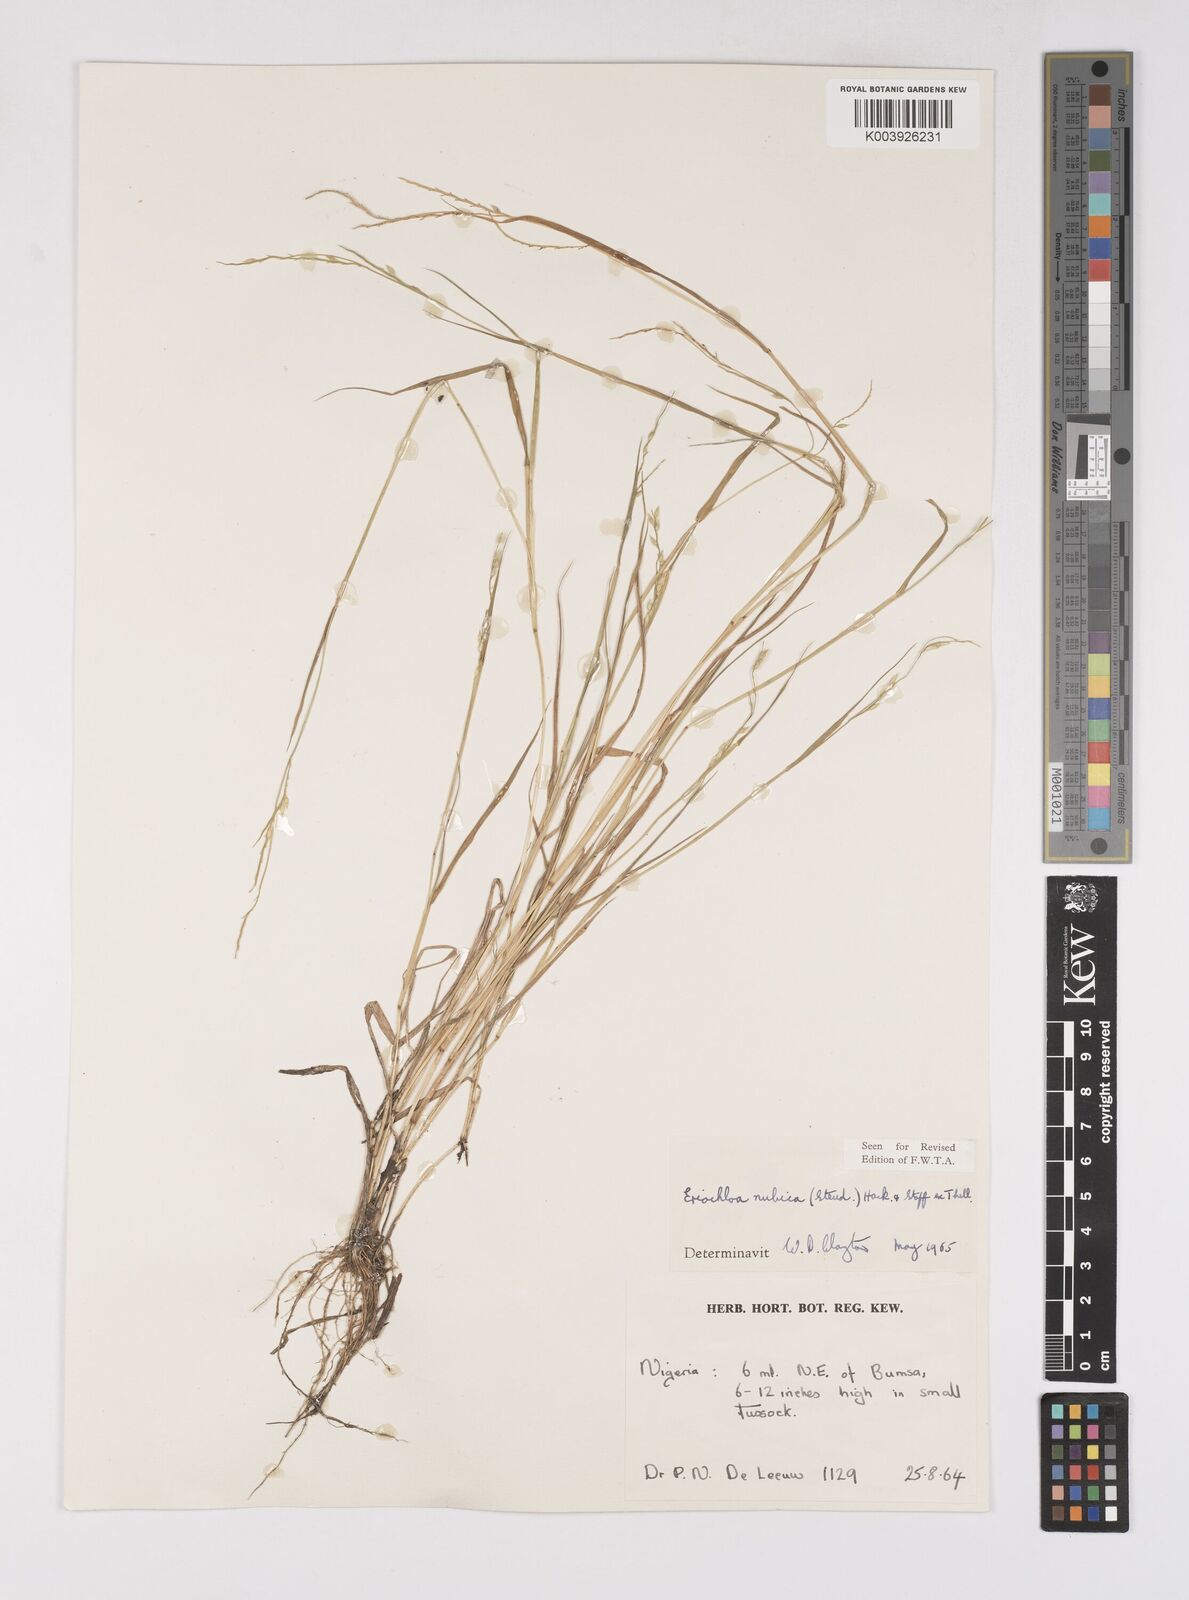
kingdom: Plantae
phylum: Tracheophyta
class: Liliopsida
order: Poales
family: Poaceae
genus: Eriochloa
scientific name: Eriochloa barbatus
